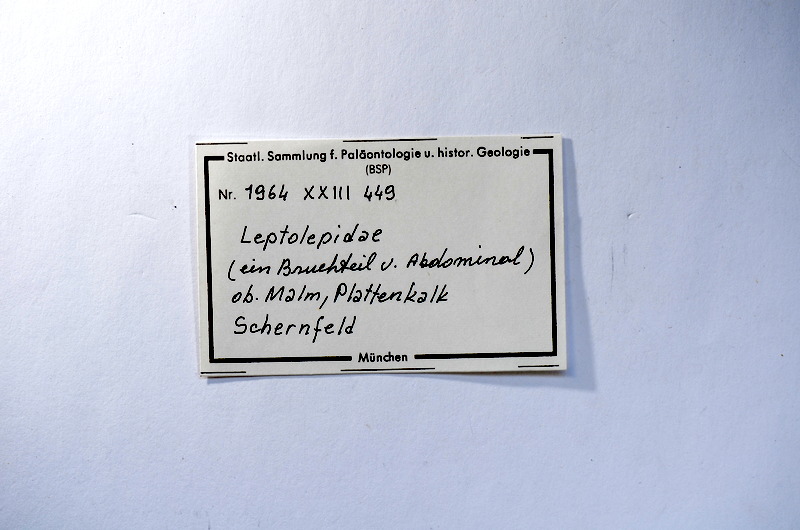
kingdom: Animalia
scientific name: Animalia
